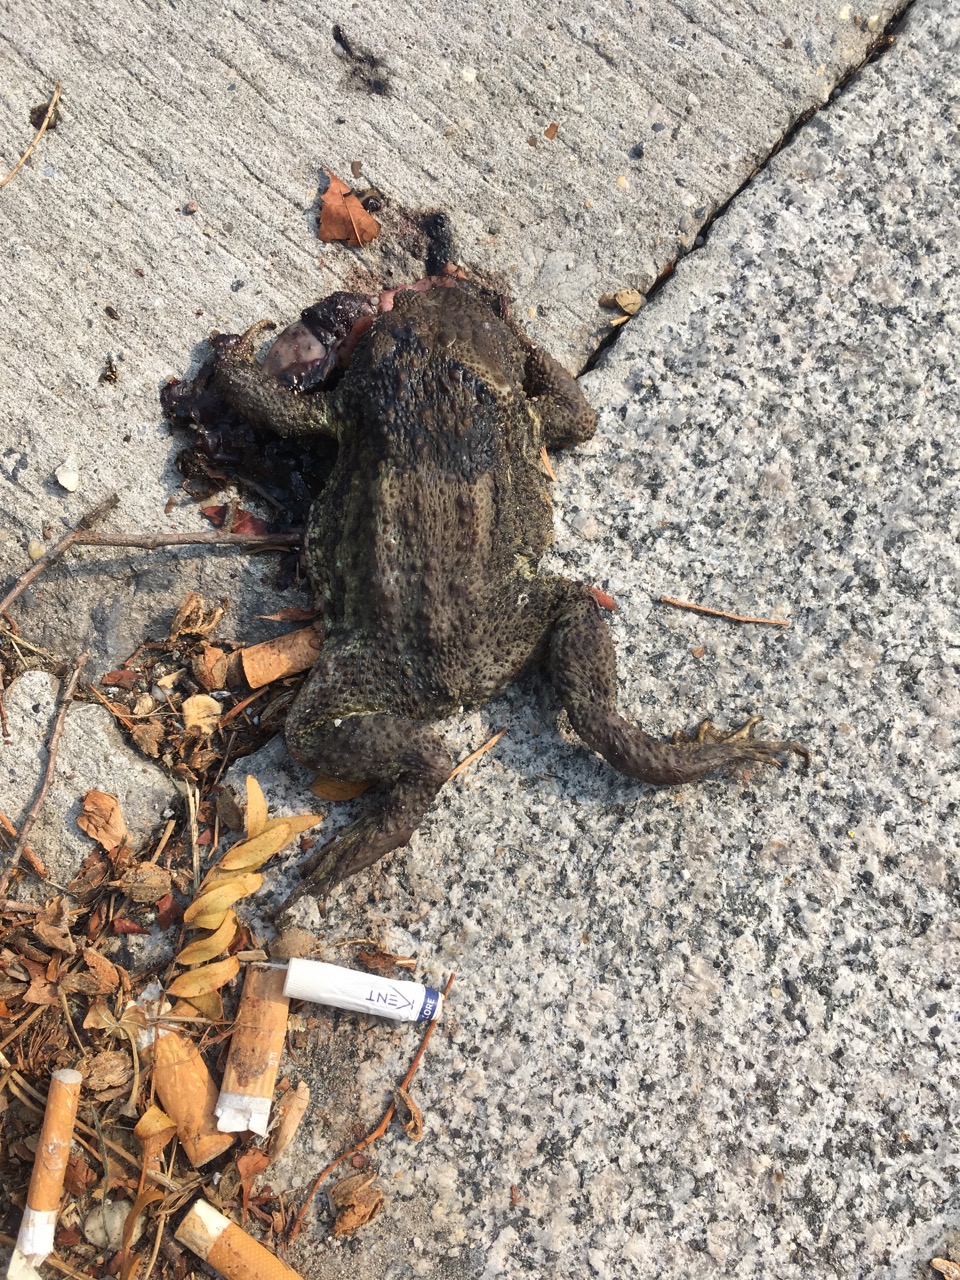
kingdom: Animalia
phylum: Chordata
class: Amphibia
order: Anura
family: Bufonidae
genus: Bufo
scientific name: Bufo bufo
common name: Common toad
